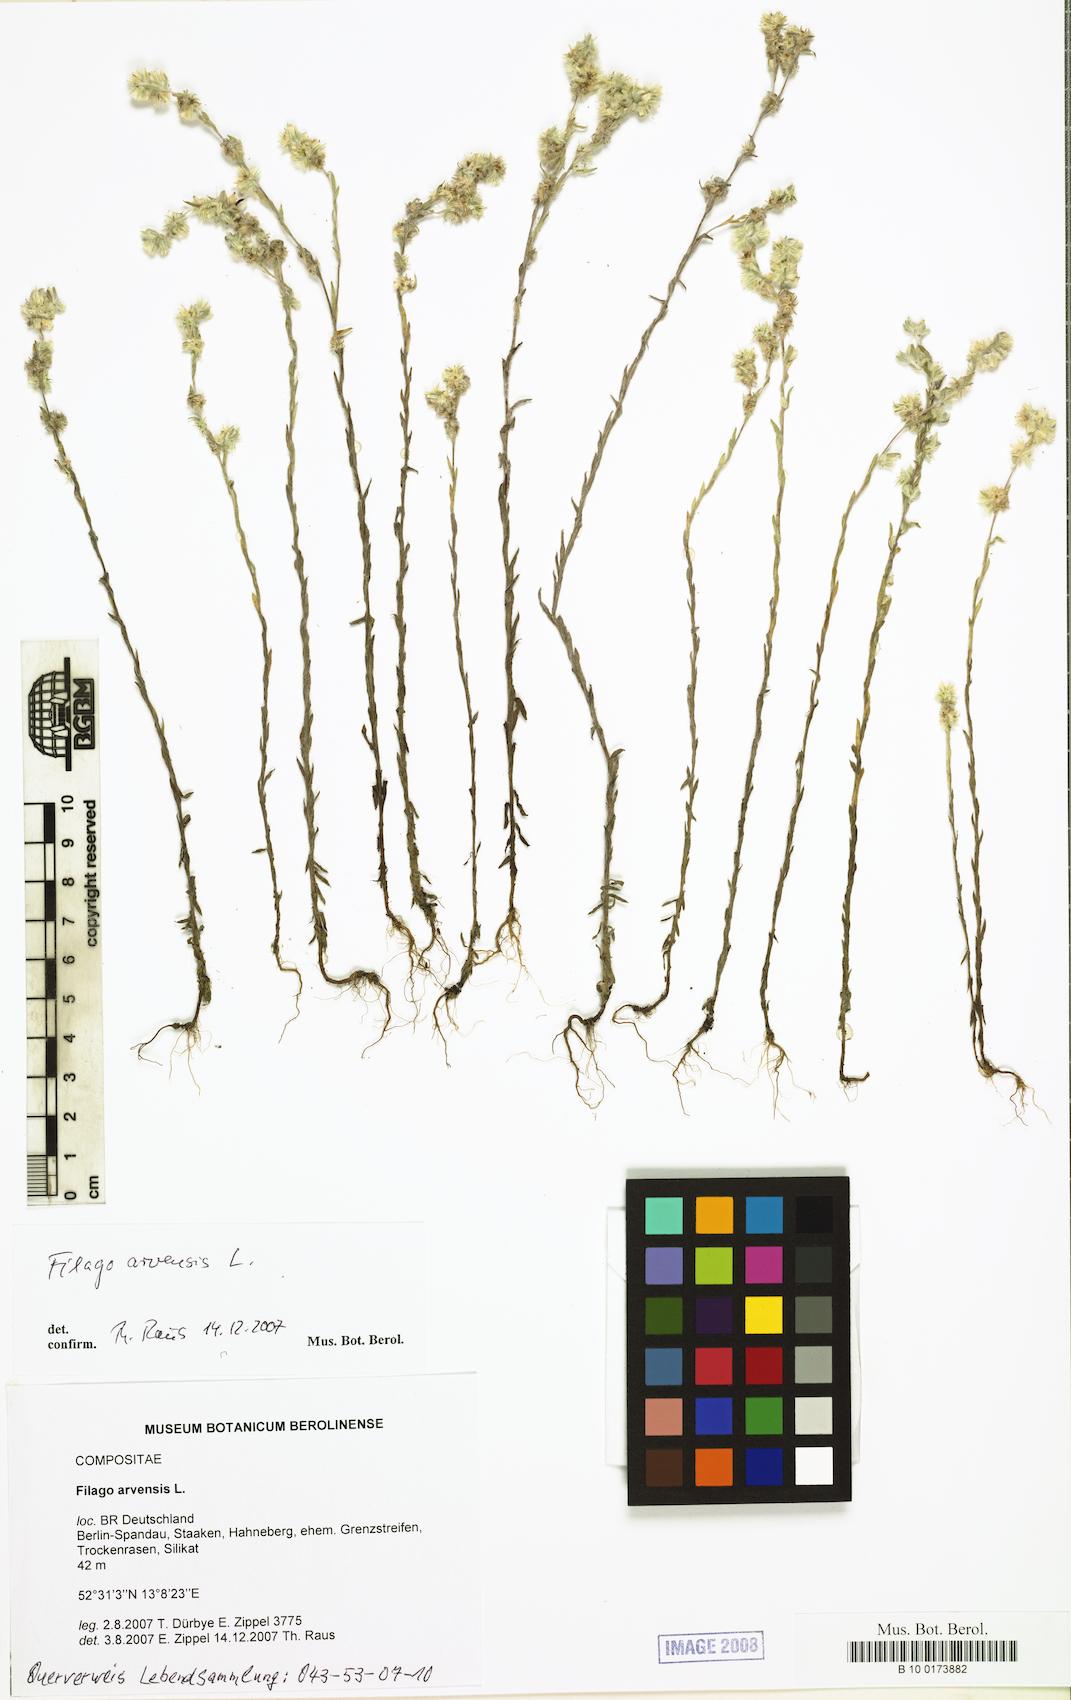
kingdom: Plantae
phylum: Tracheophyta
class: Magnoliopsida
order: Asterales
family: Asteraceae
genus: Filago
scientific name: Filago arvensis
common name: Field cudweed
